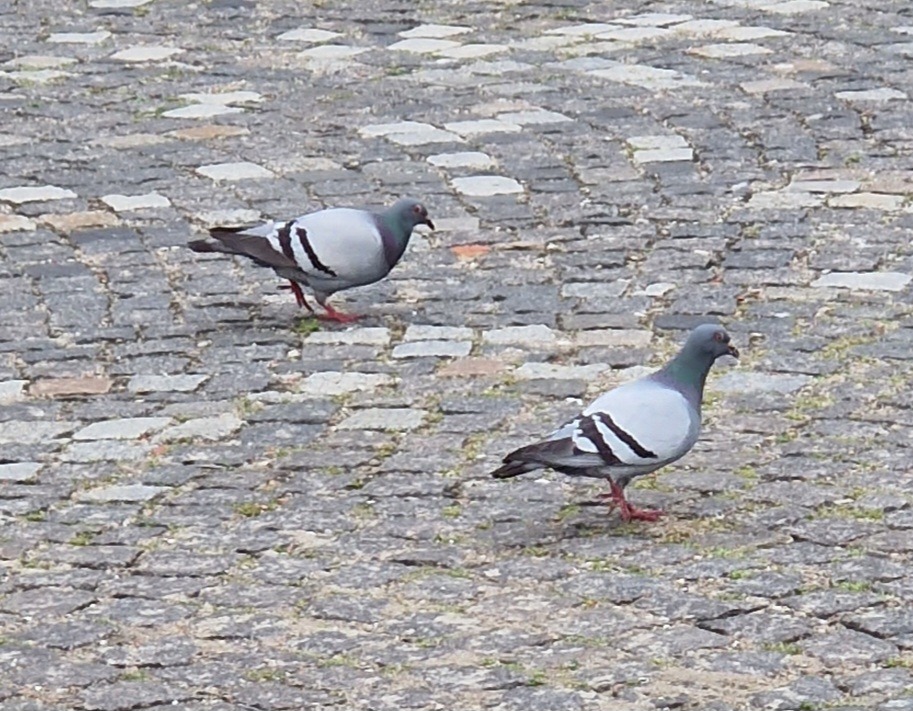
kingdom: Animalia
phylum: Chordata
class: Aves
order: Columbiformes
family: Columbidae
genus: Columba
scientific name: Columba livia
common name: Klippedue
